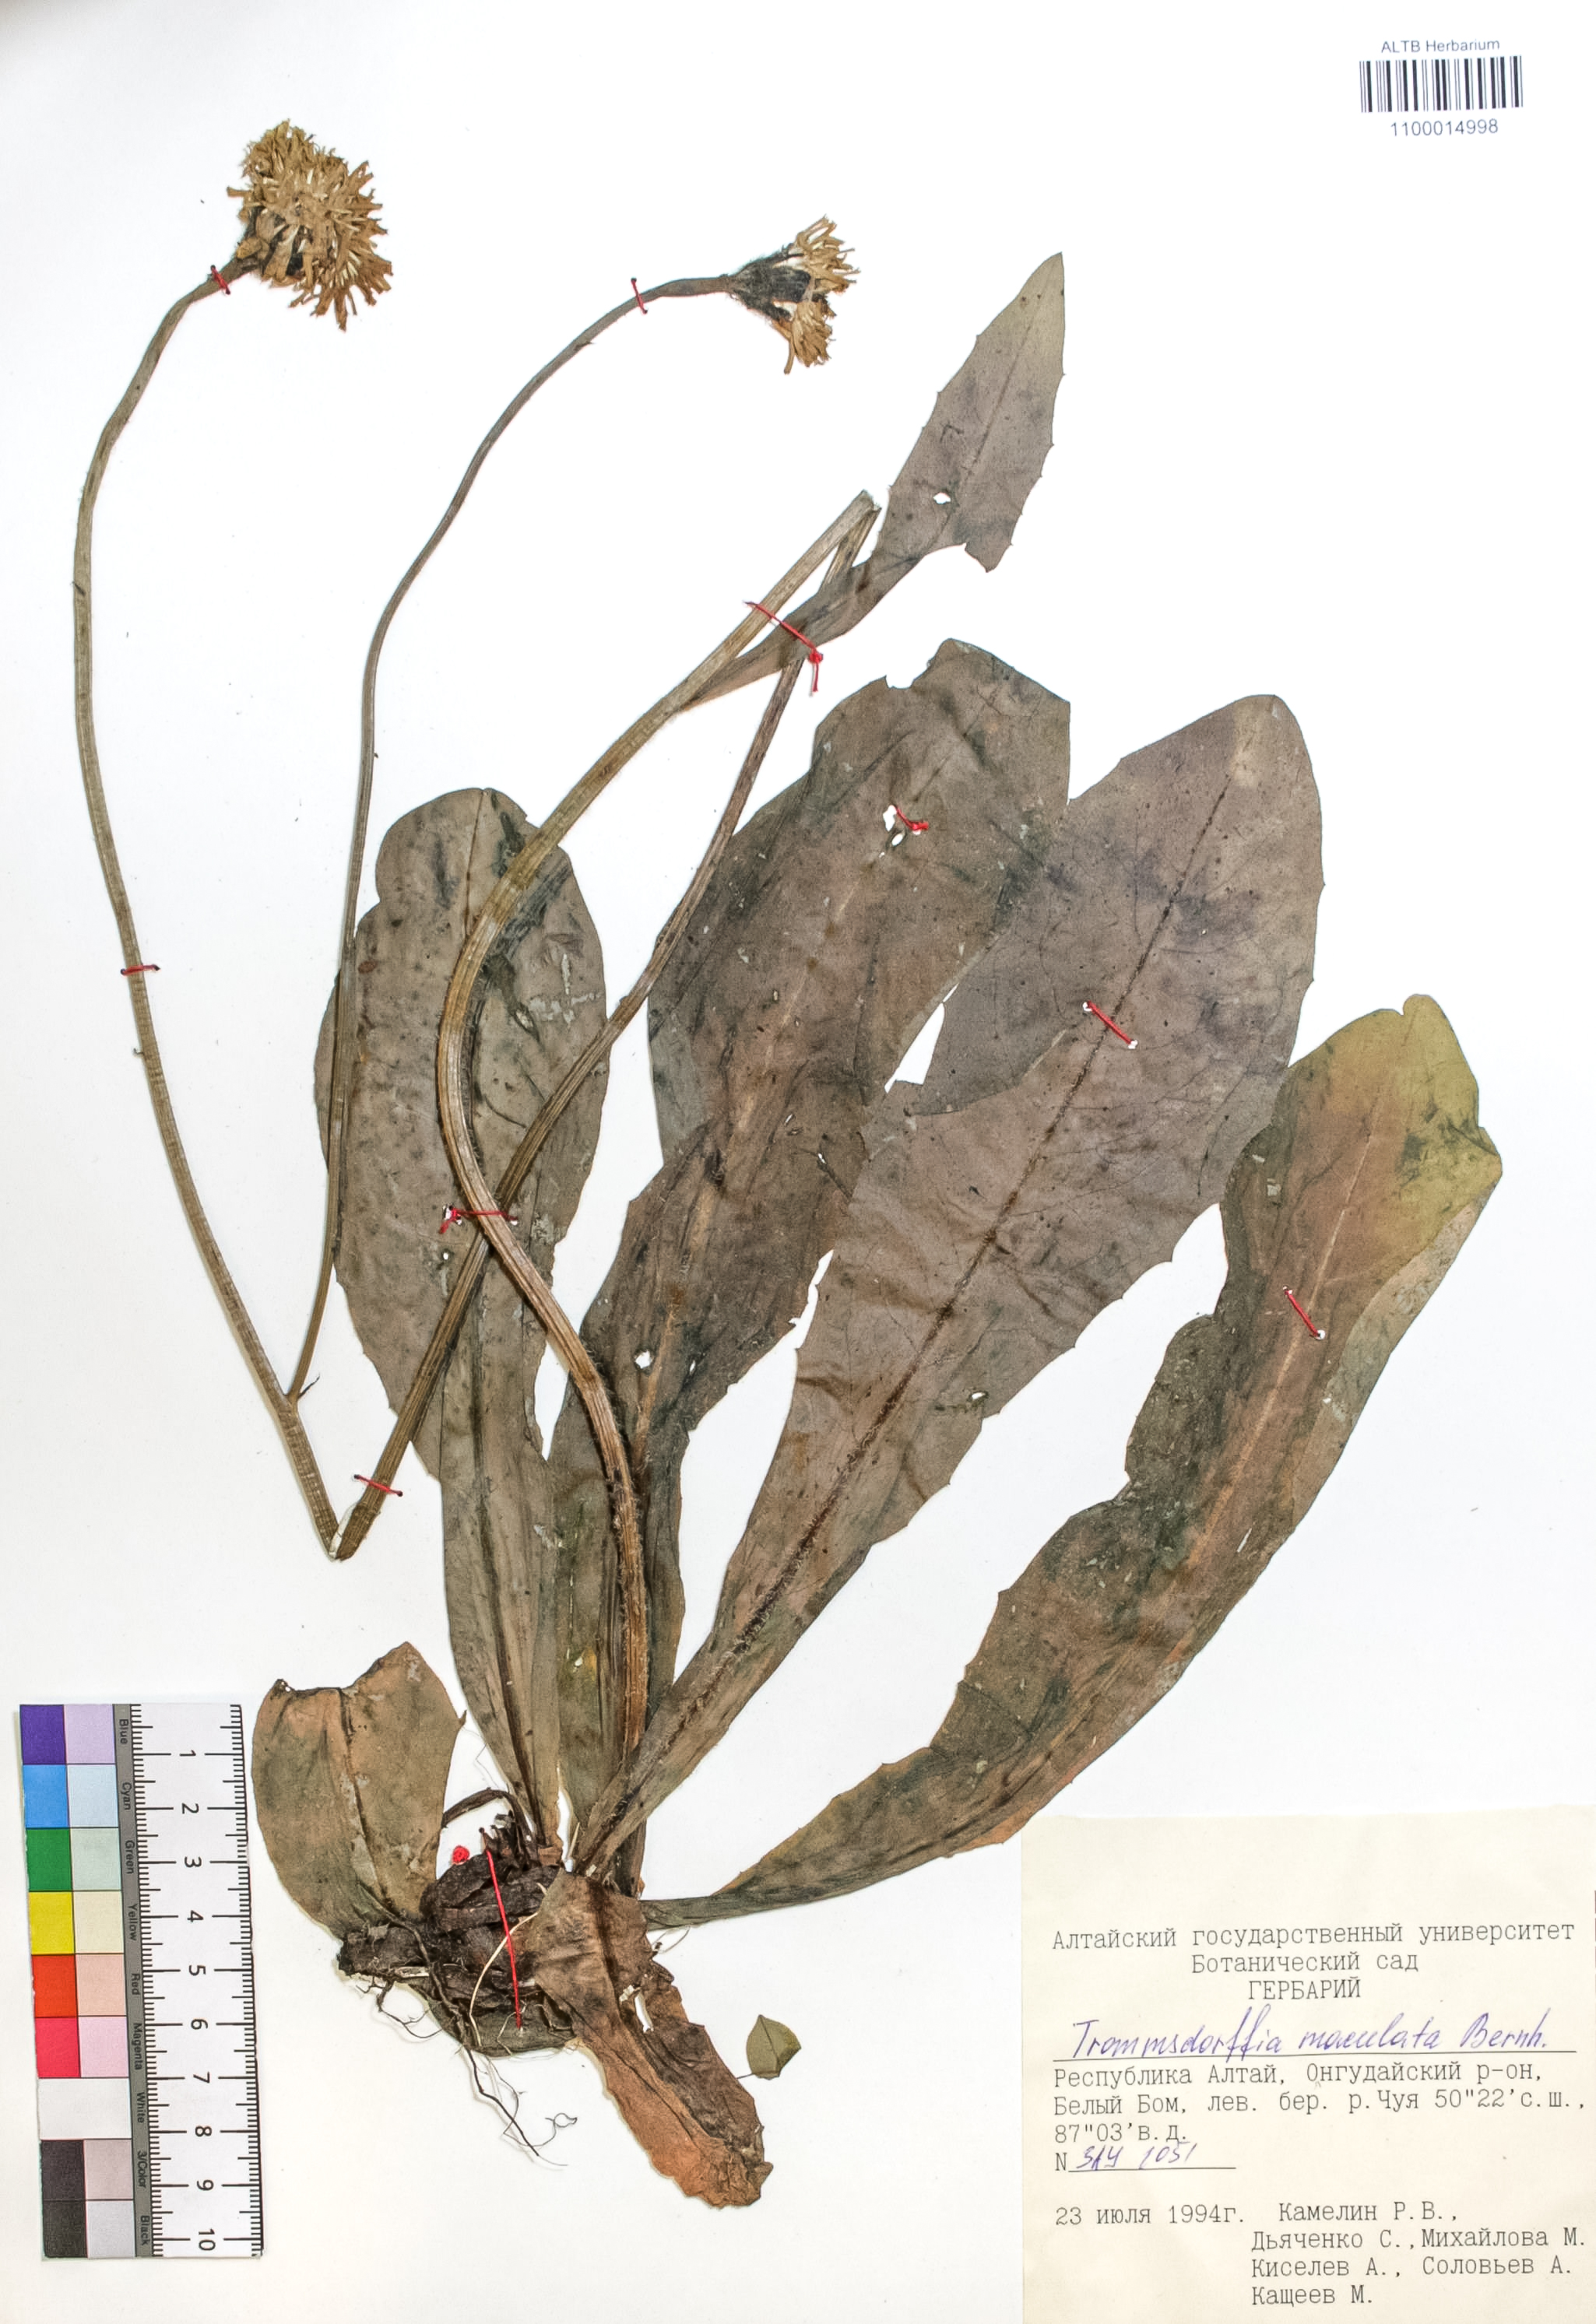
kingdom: Plantae
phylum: Tracheophyta
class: Magnoliopsida
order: Asterales
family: Asteraceae
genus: Trommsdorffia
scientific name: Trommsdorffia maculata
